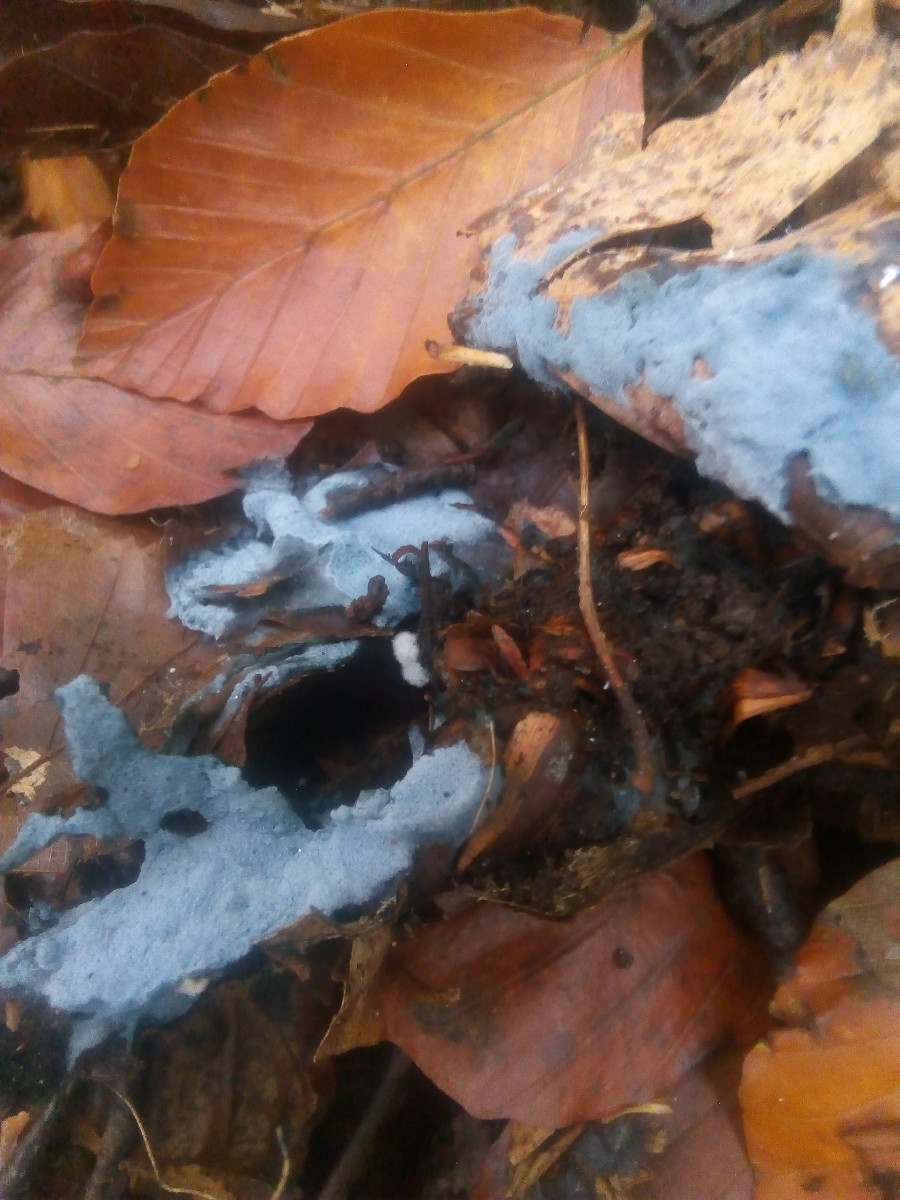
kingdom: Fungi
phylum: Basidiomycota
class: Agaricomycetes
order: Atheliales
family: Atheliaceae
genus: Byssocorticium
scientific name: Byssocorticium atrovirens
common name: blå førnehinde
